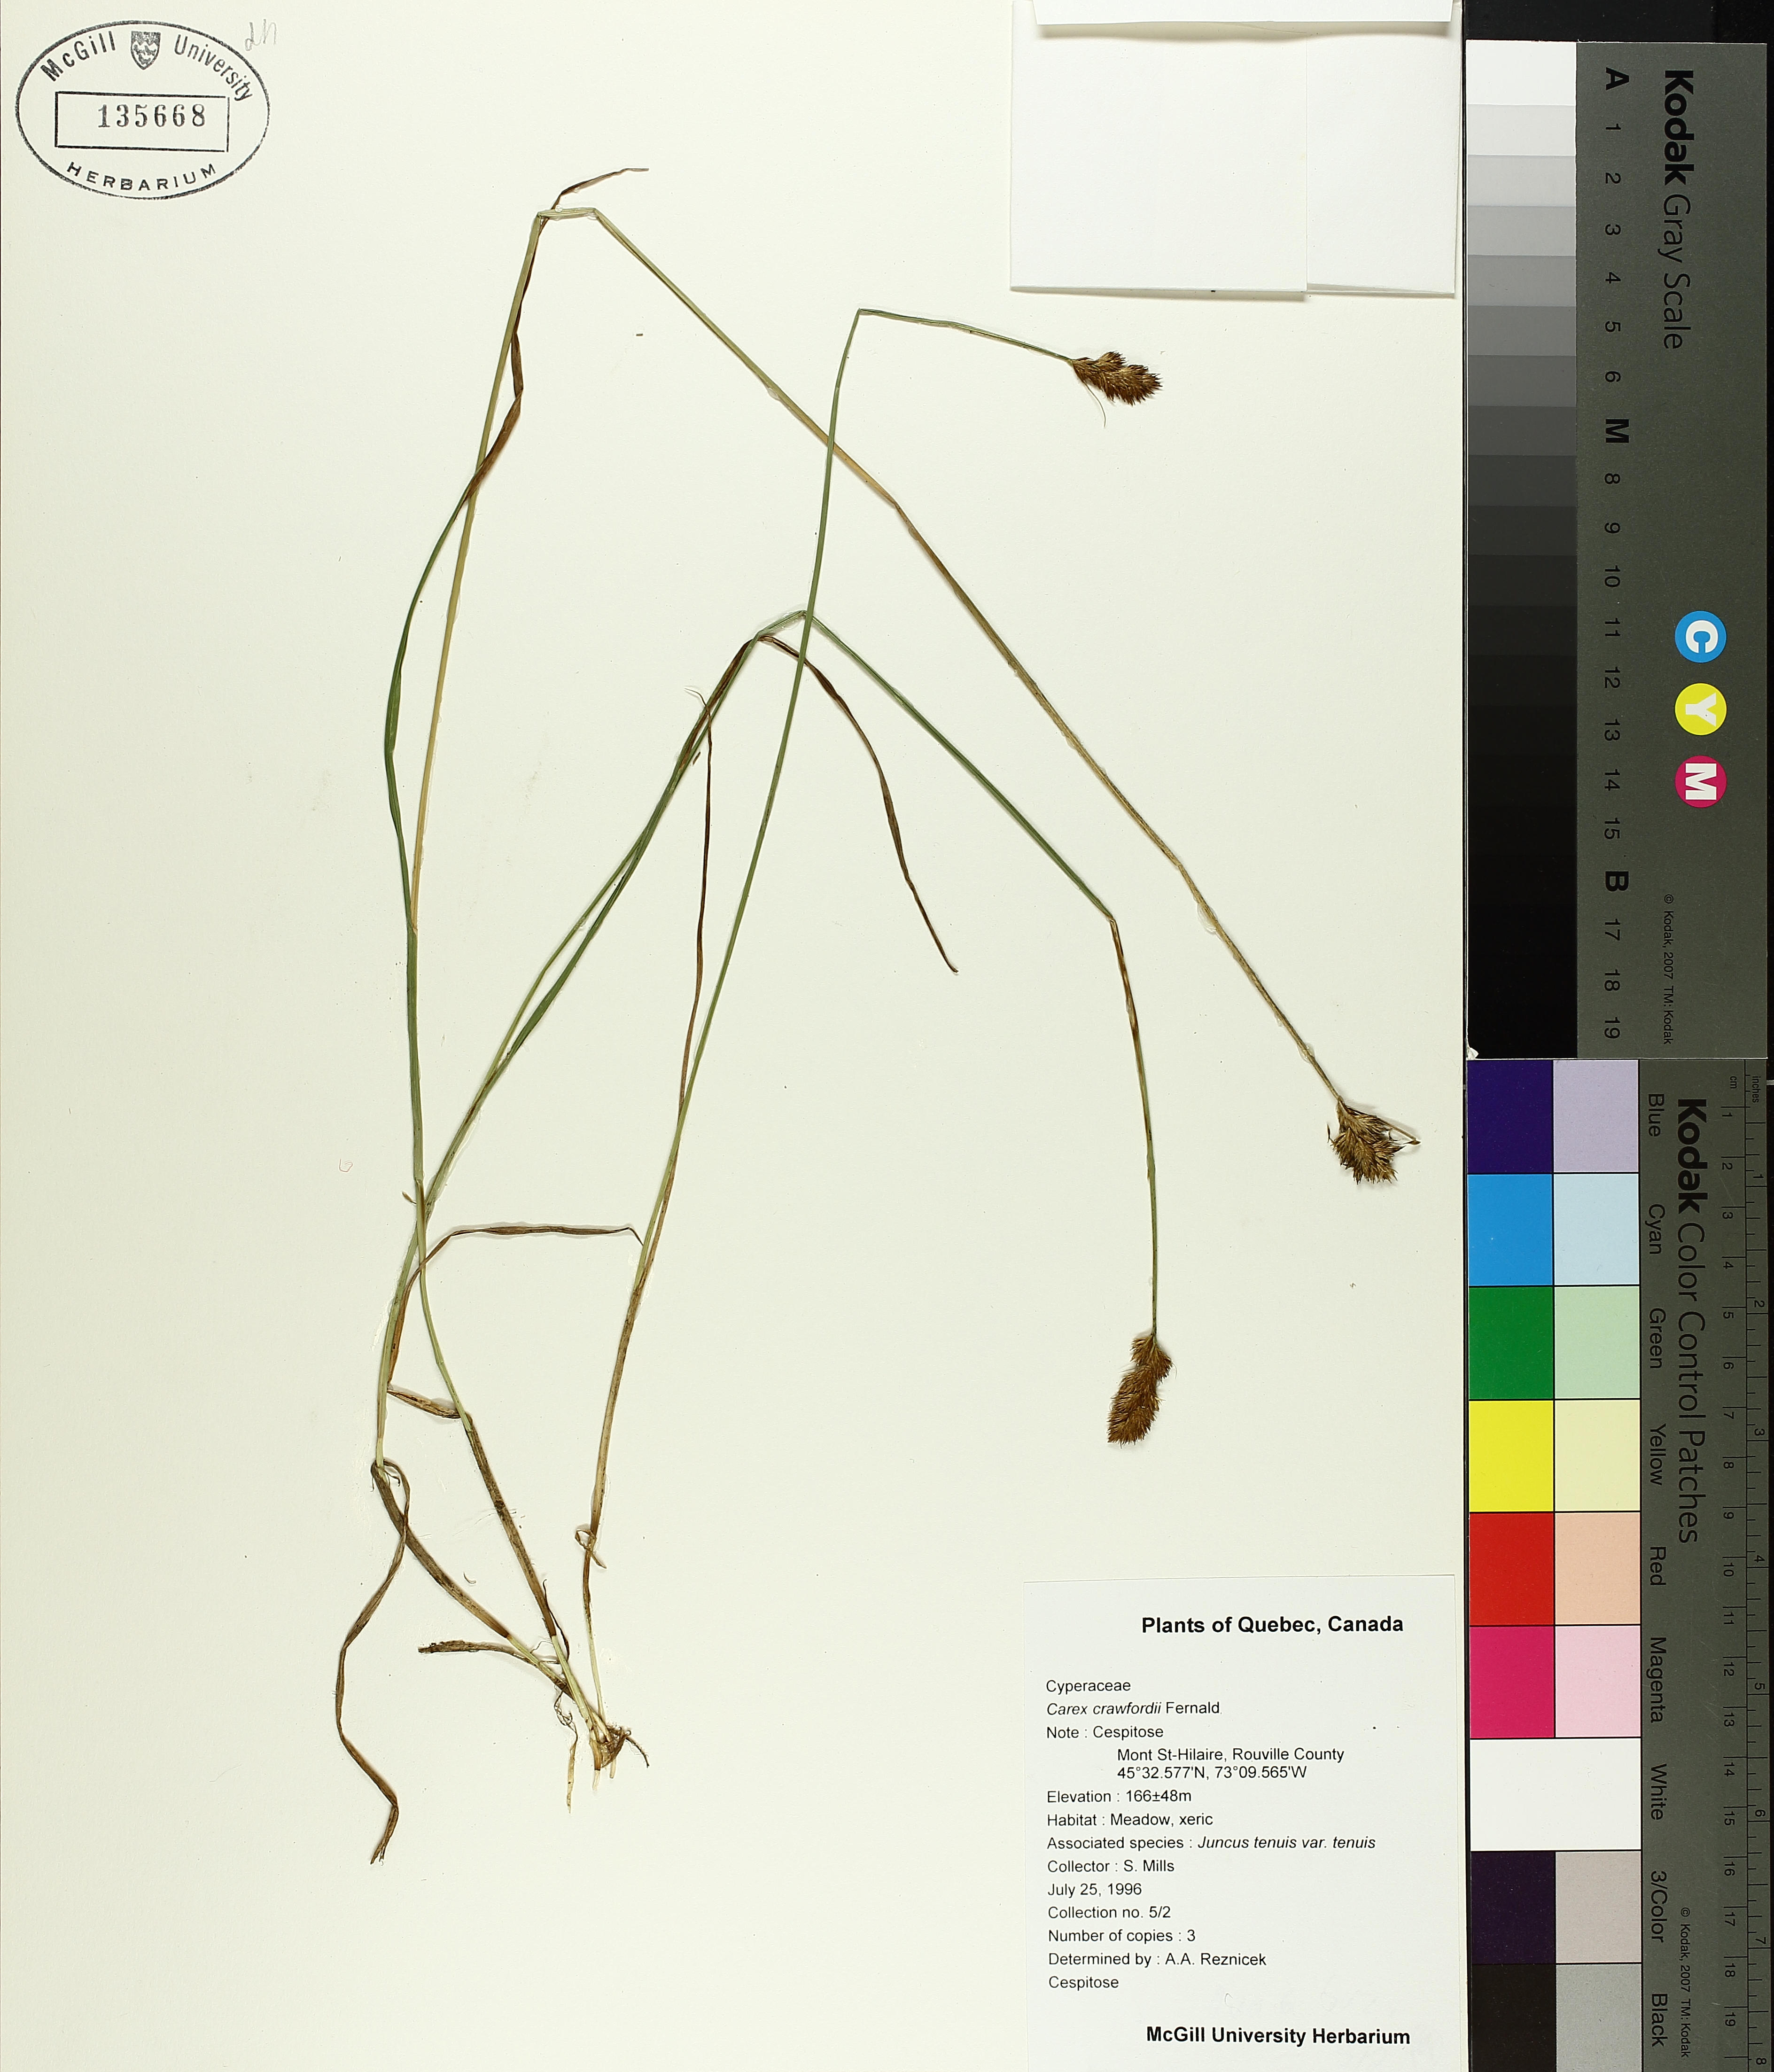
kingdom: Plantae
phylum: Tracheophyta
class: Liliopsida
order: Poales
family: Cyperaceae
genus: Carex
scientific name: Carex crawfordii
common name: Crawford's sedge
